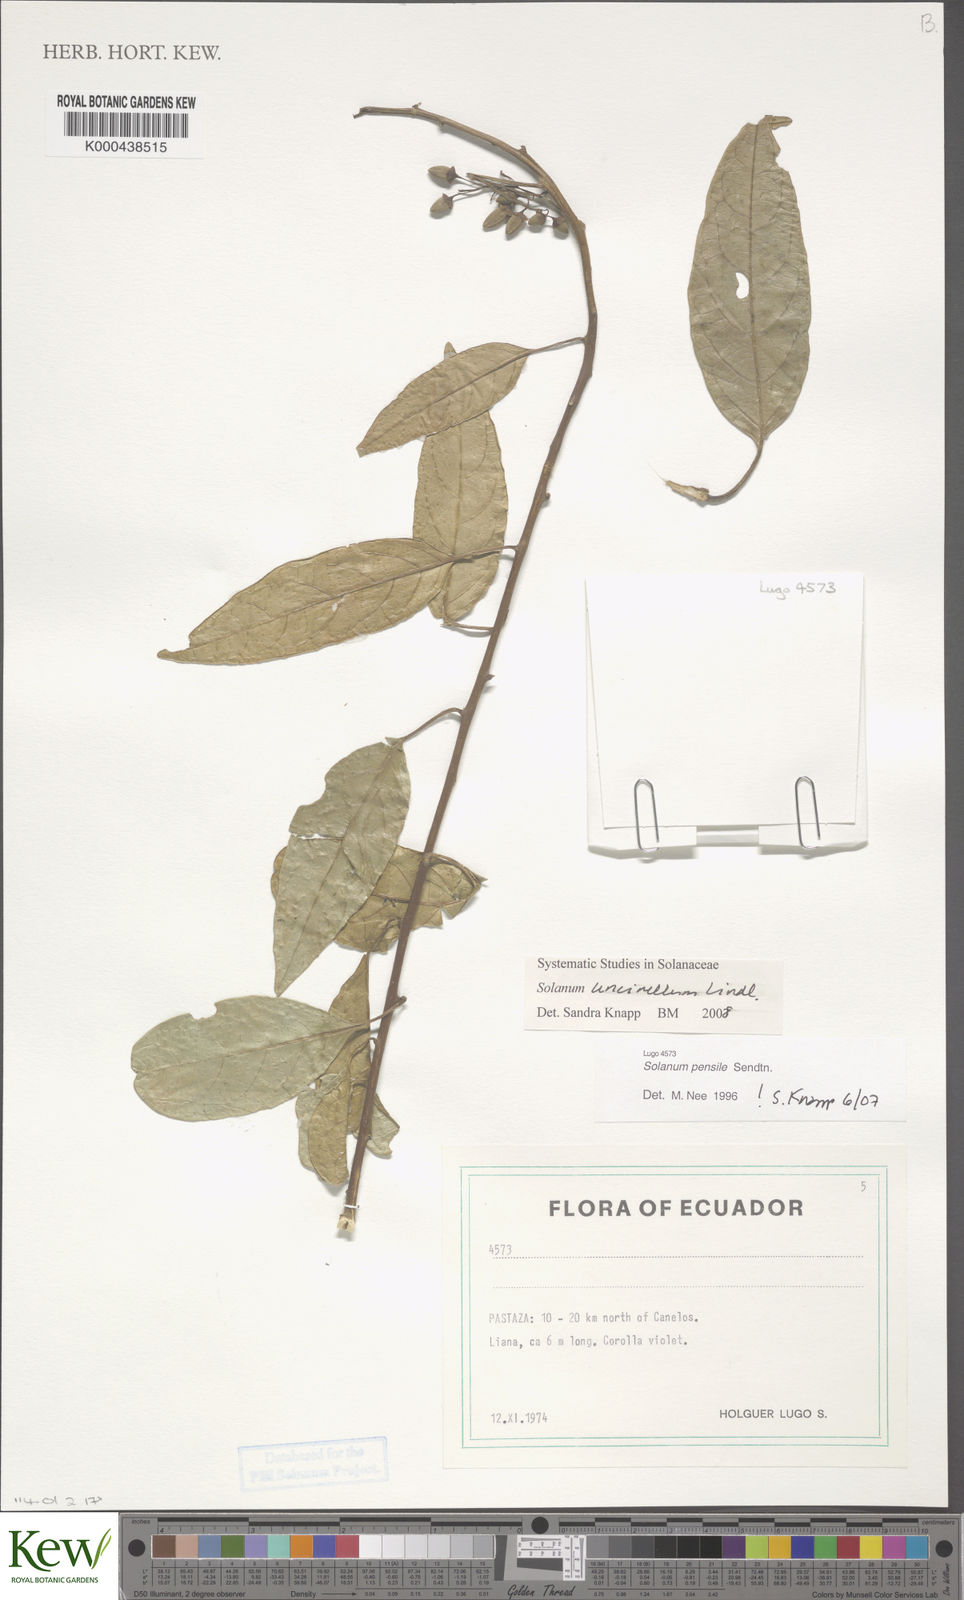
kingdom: Plantae
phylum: Tracheophyta
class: Magnoliopsida
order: Solanales
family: Solanaceae
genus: Solanum
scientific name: Solanum uncinellum
